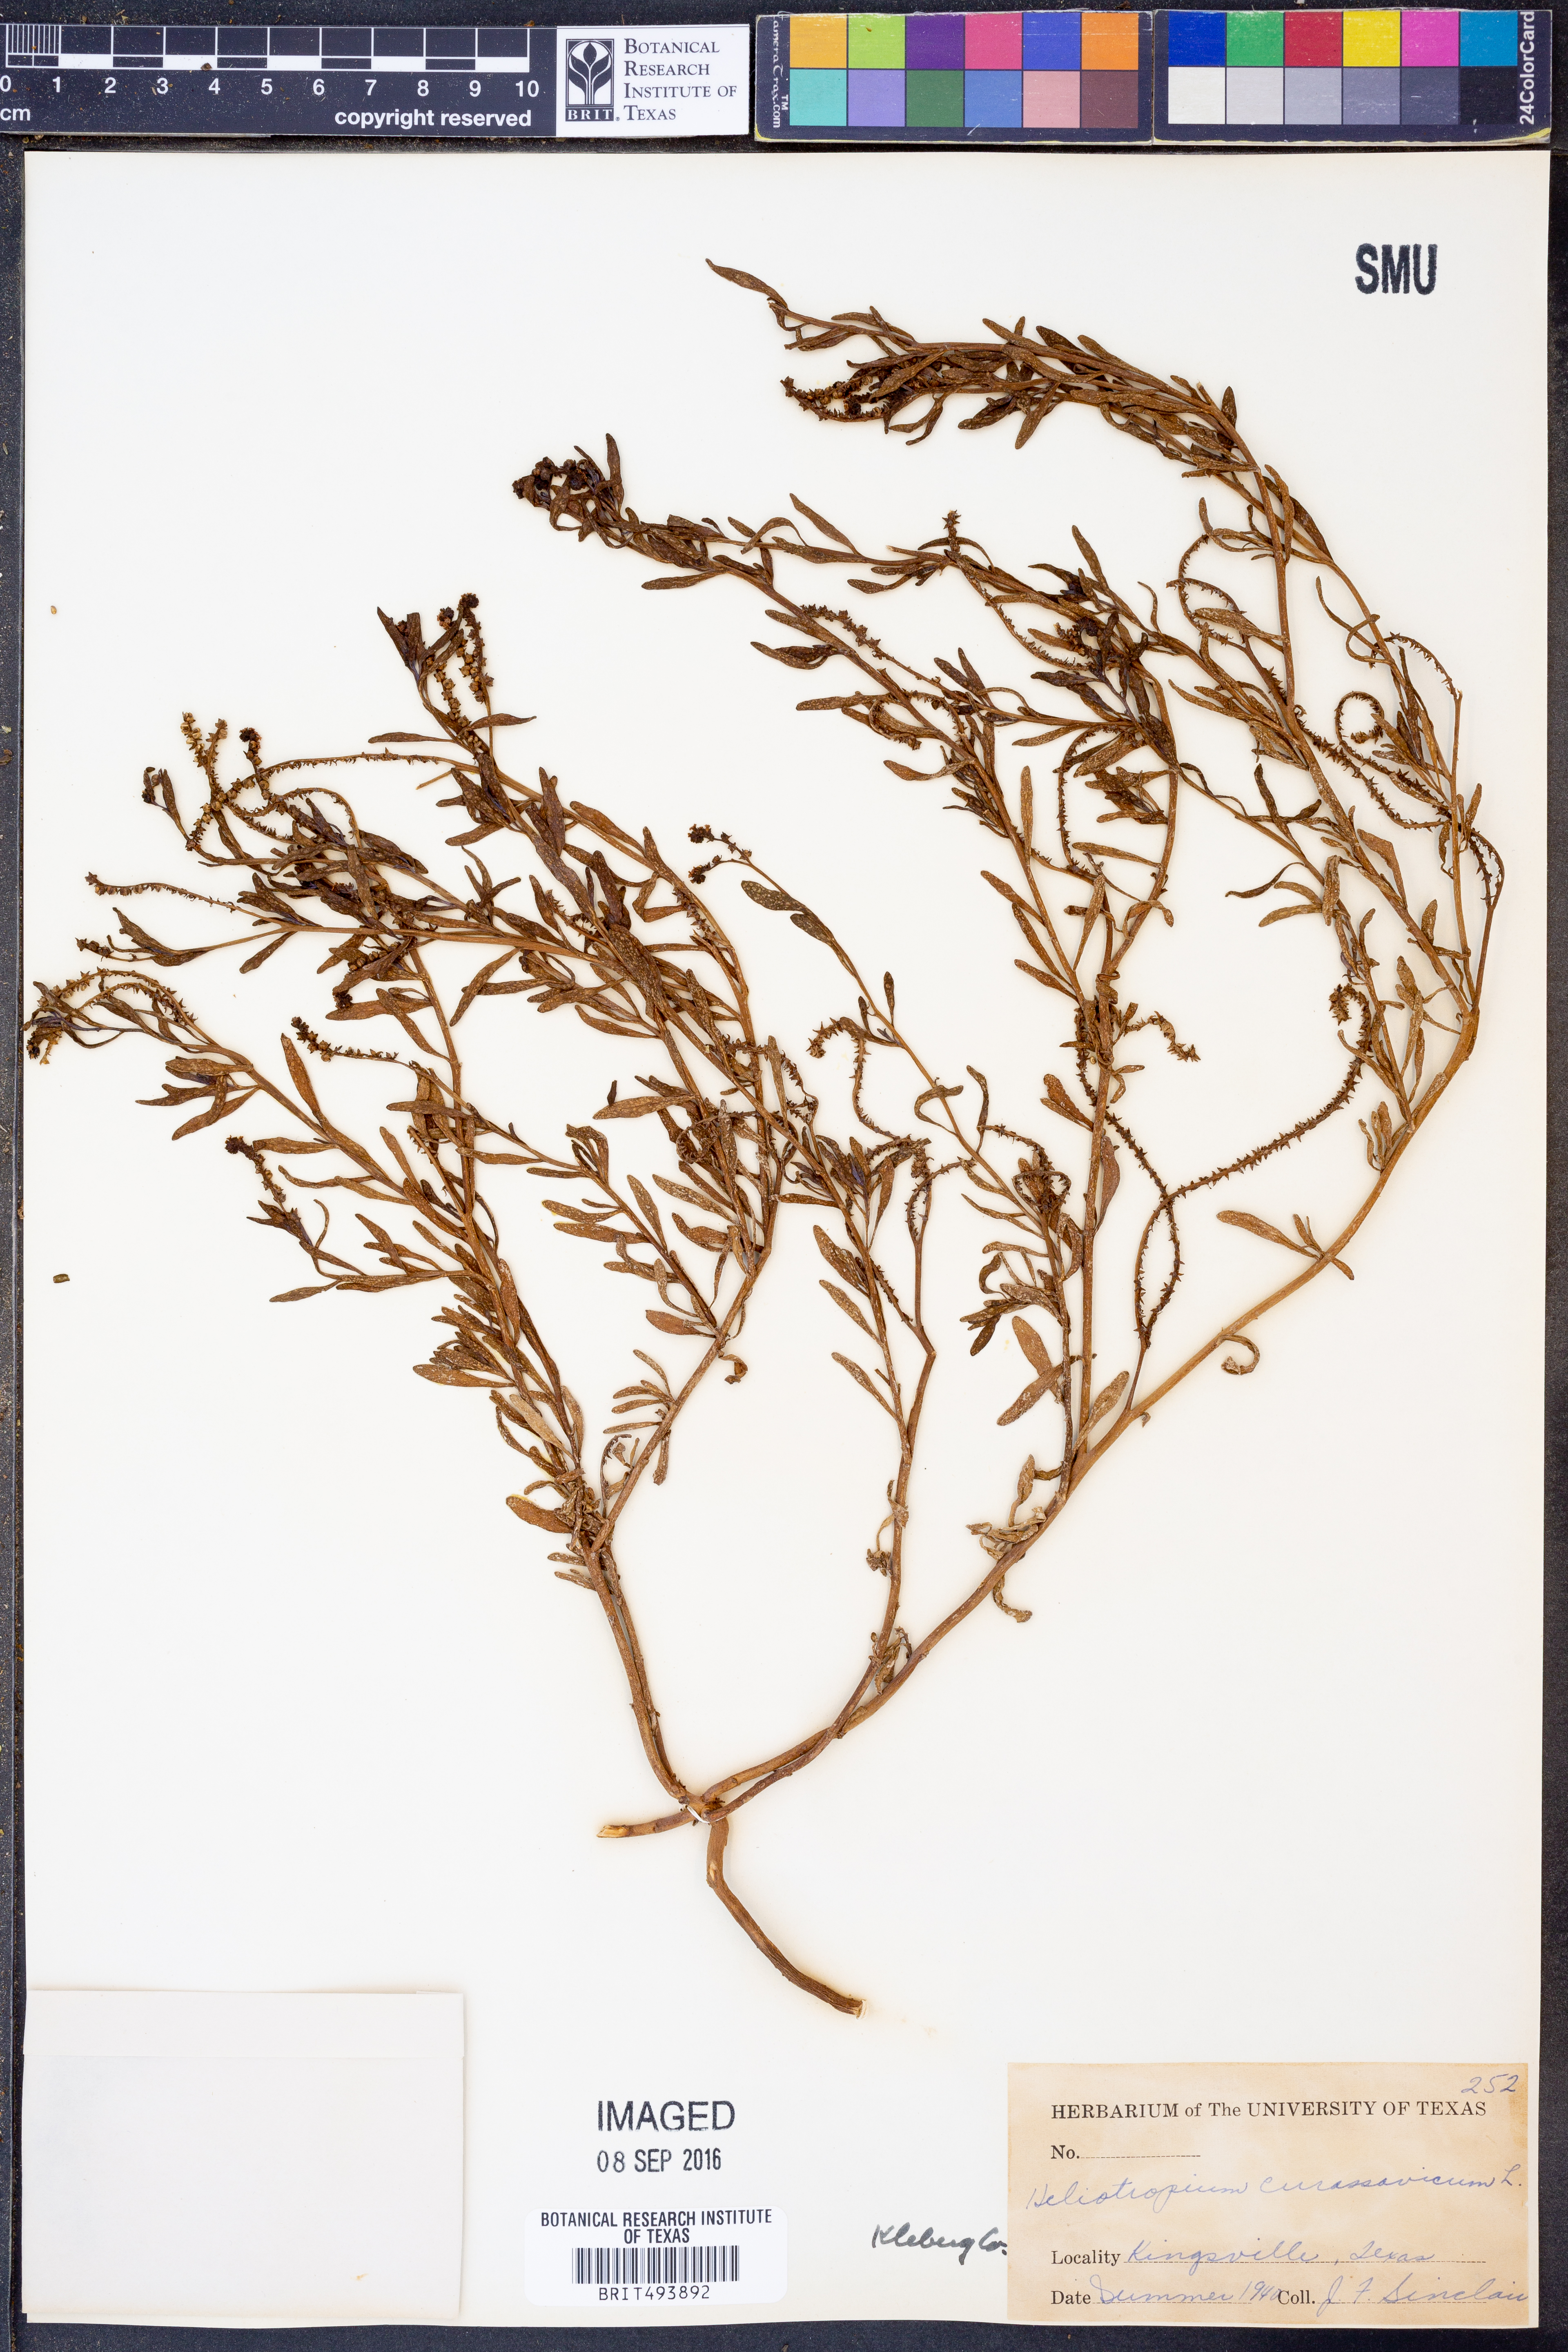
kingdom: Plantae
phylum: Tracheophyta
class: Magnoliopsida
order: Boraginales
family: Heliotropiaceae
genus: Heliotropium
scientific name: Heliotropium curassavicum
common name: Seaside heliotrope
